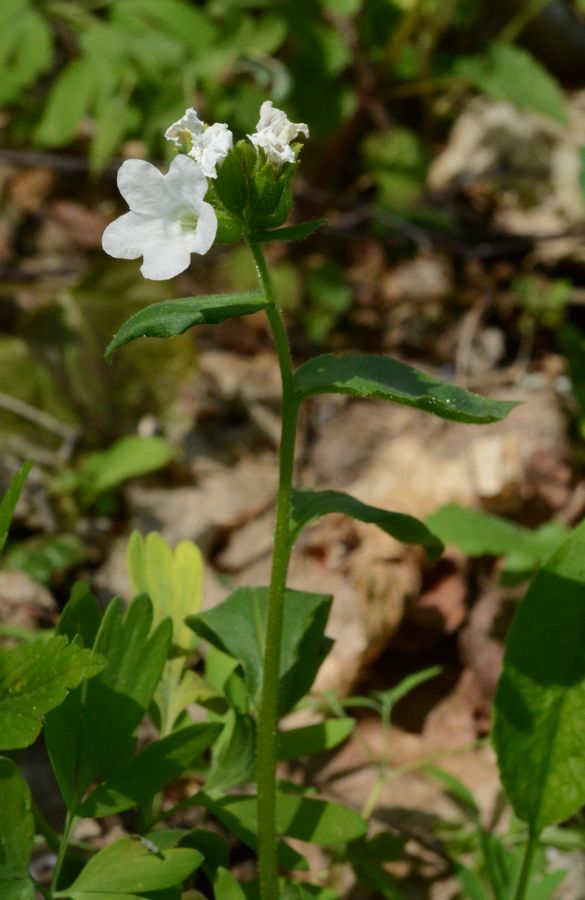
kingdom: Plantae
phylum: Tracheophyta
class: Magnoliopsida
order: Boraginales
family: Boraginaceae
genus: Pulmonaria
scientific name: Pulmonaria obscura
